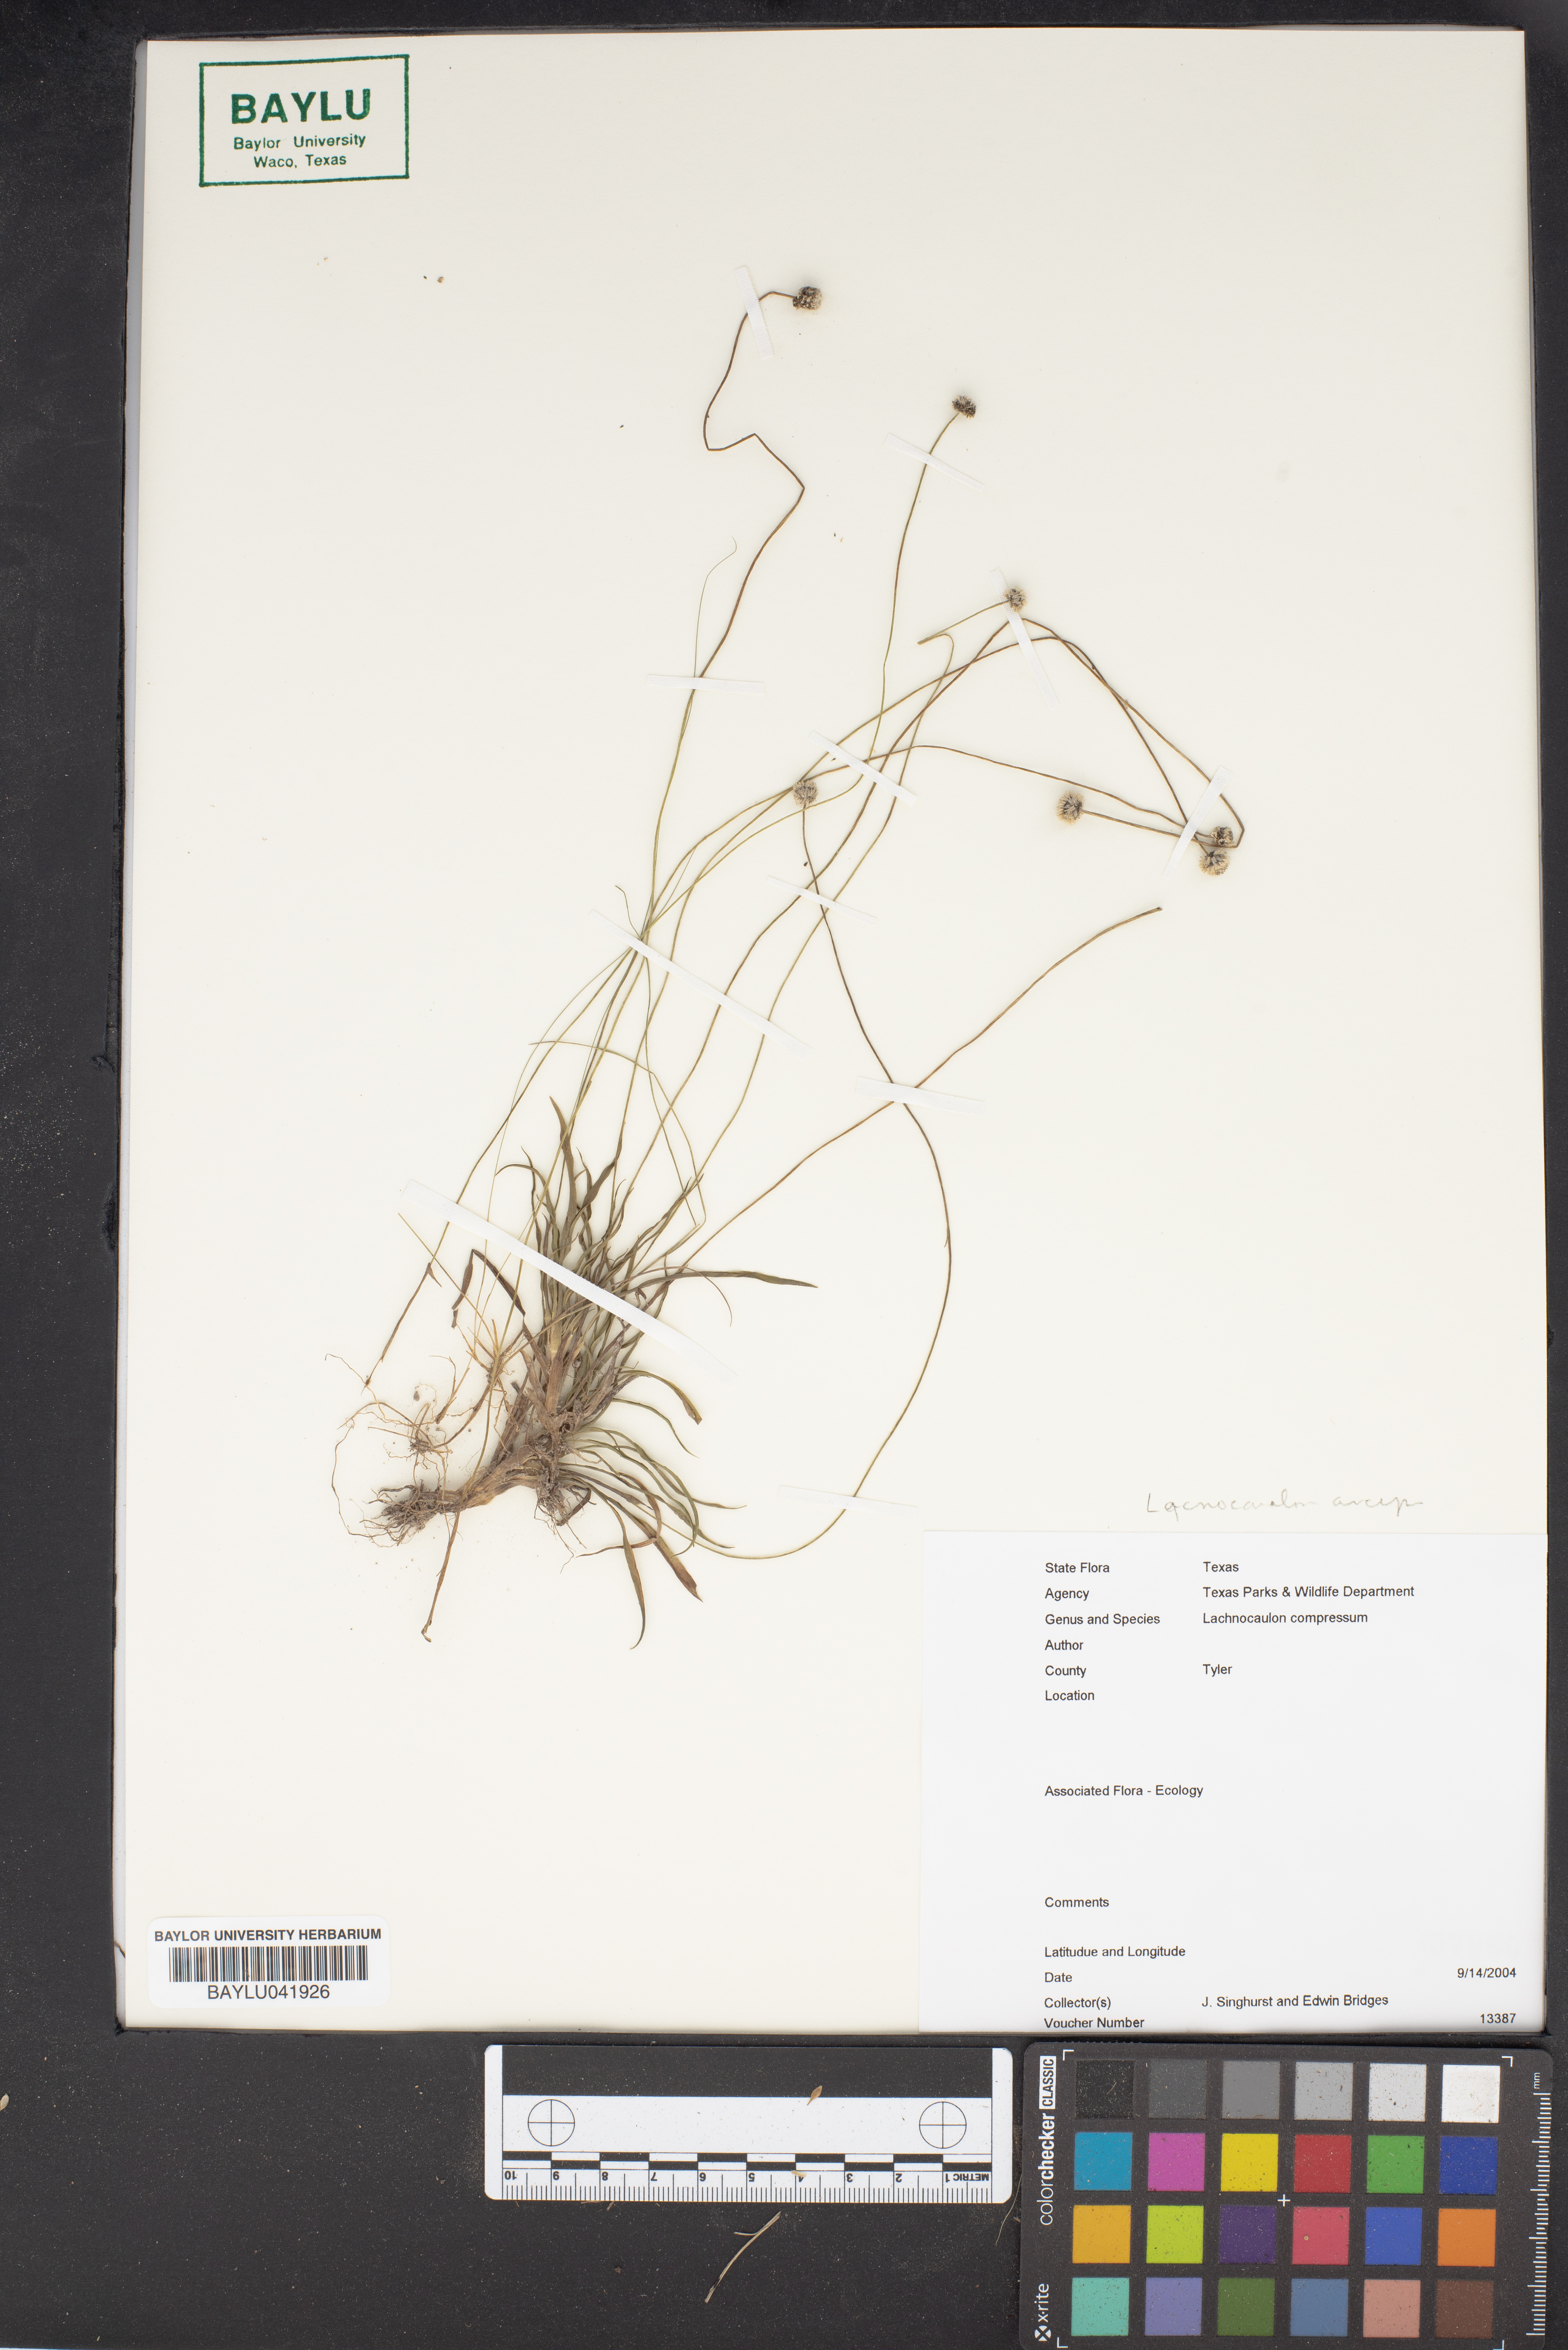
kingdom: Plantae
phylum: Tracheophyta
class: Liliopsida
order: Poales
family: Eriocaulaceae
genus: Paepalanthus
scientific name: Paepalanthus
